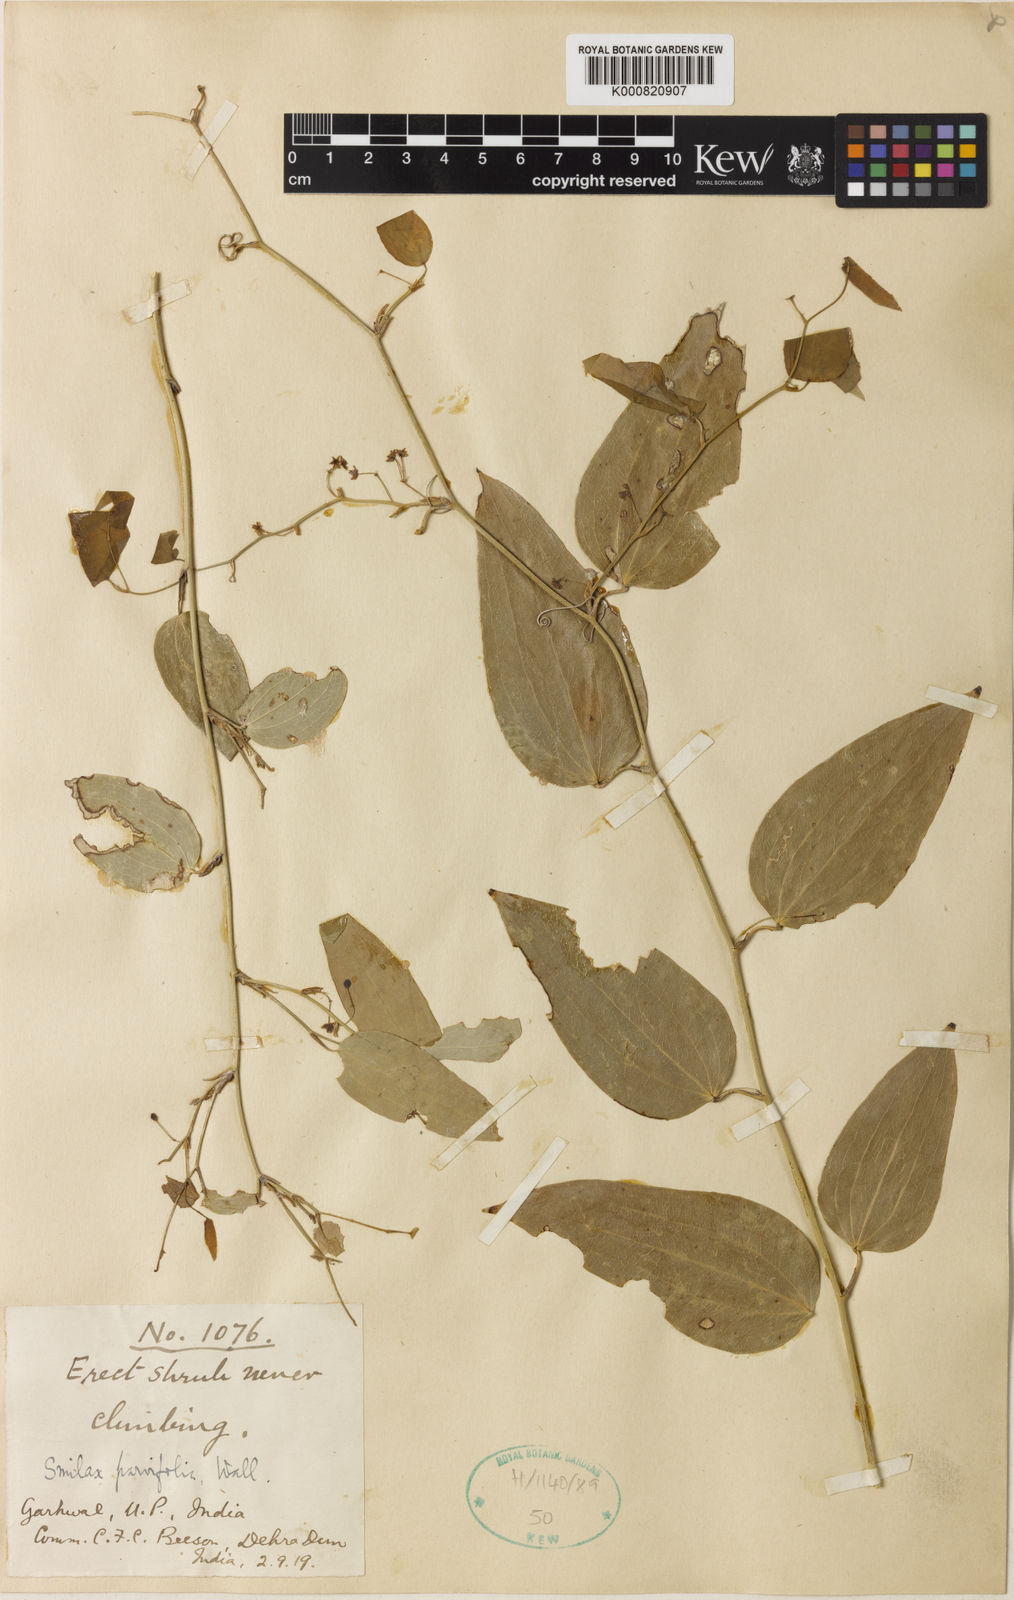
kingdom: Plantae
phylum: Tracheophyta
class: Liliopsida
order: Liliales
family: Smilacaceae
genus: Smilax
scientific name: Smilax elegans
